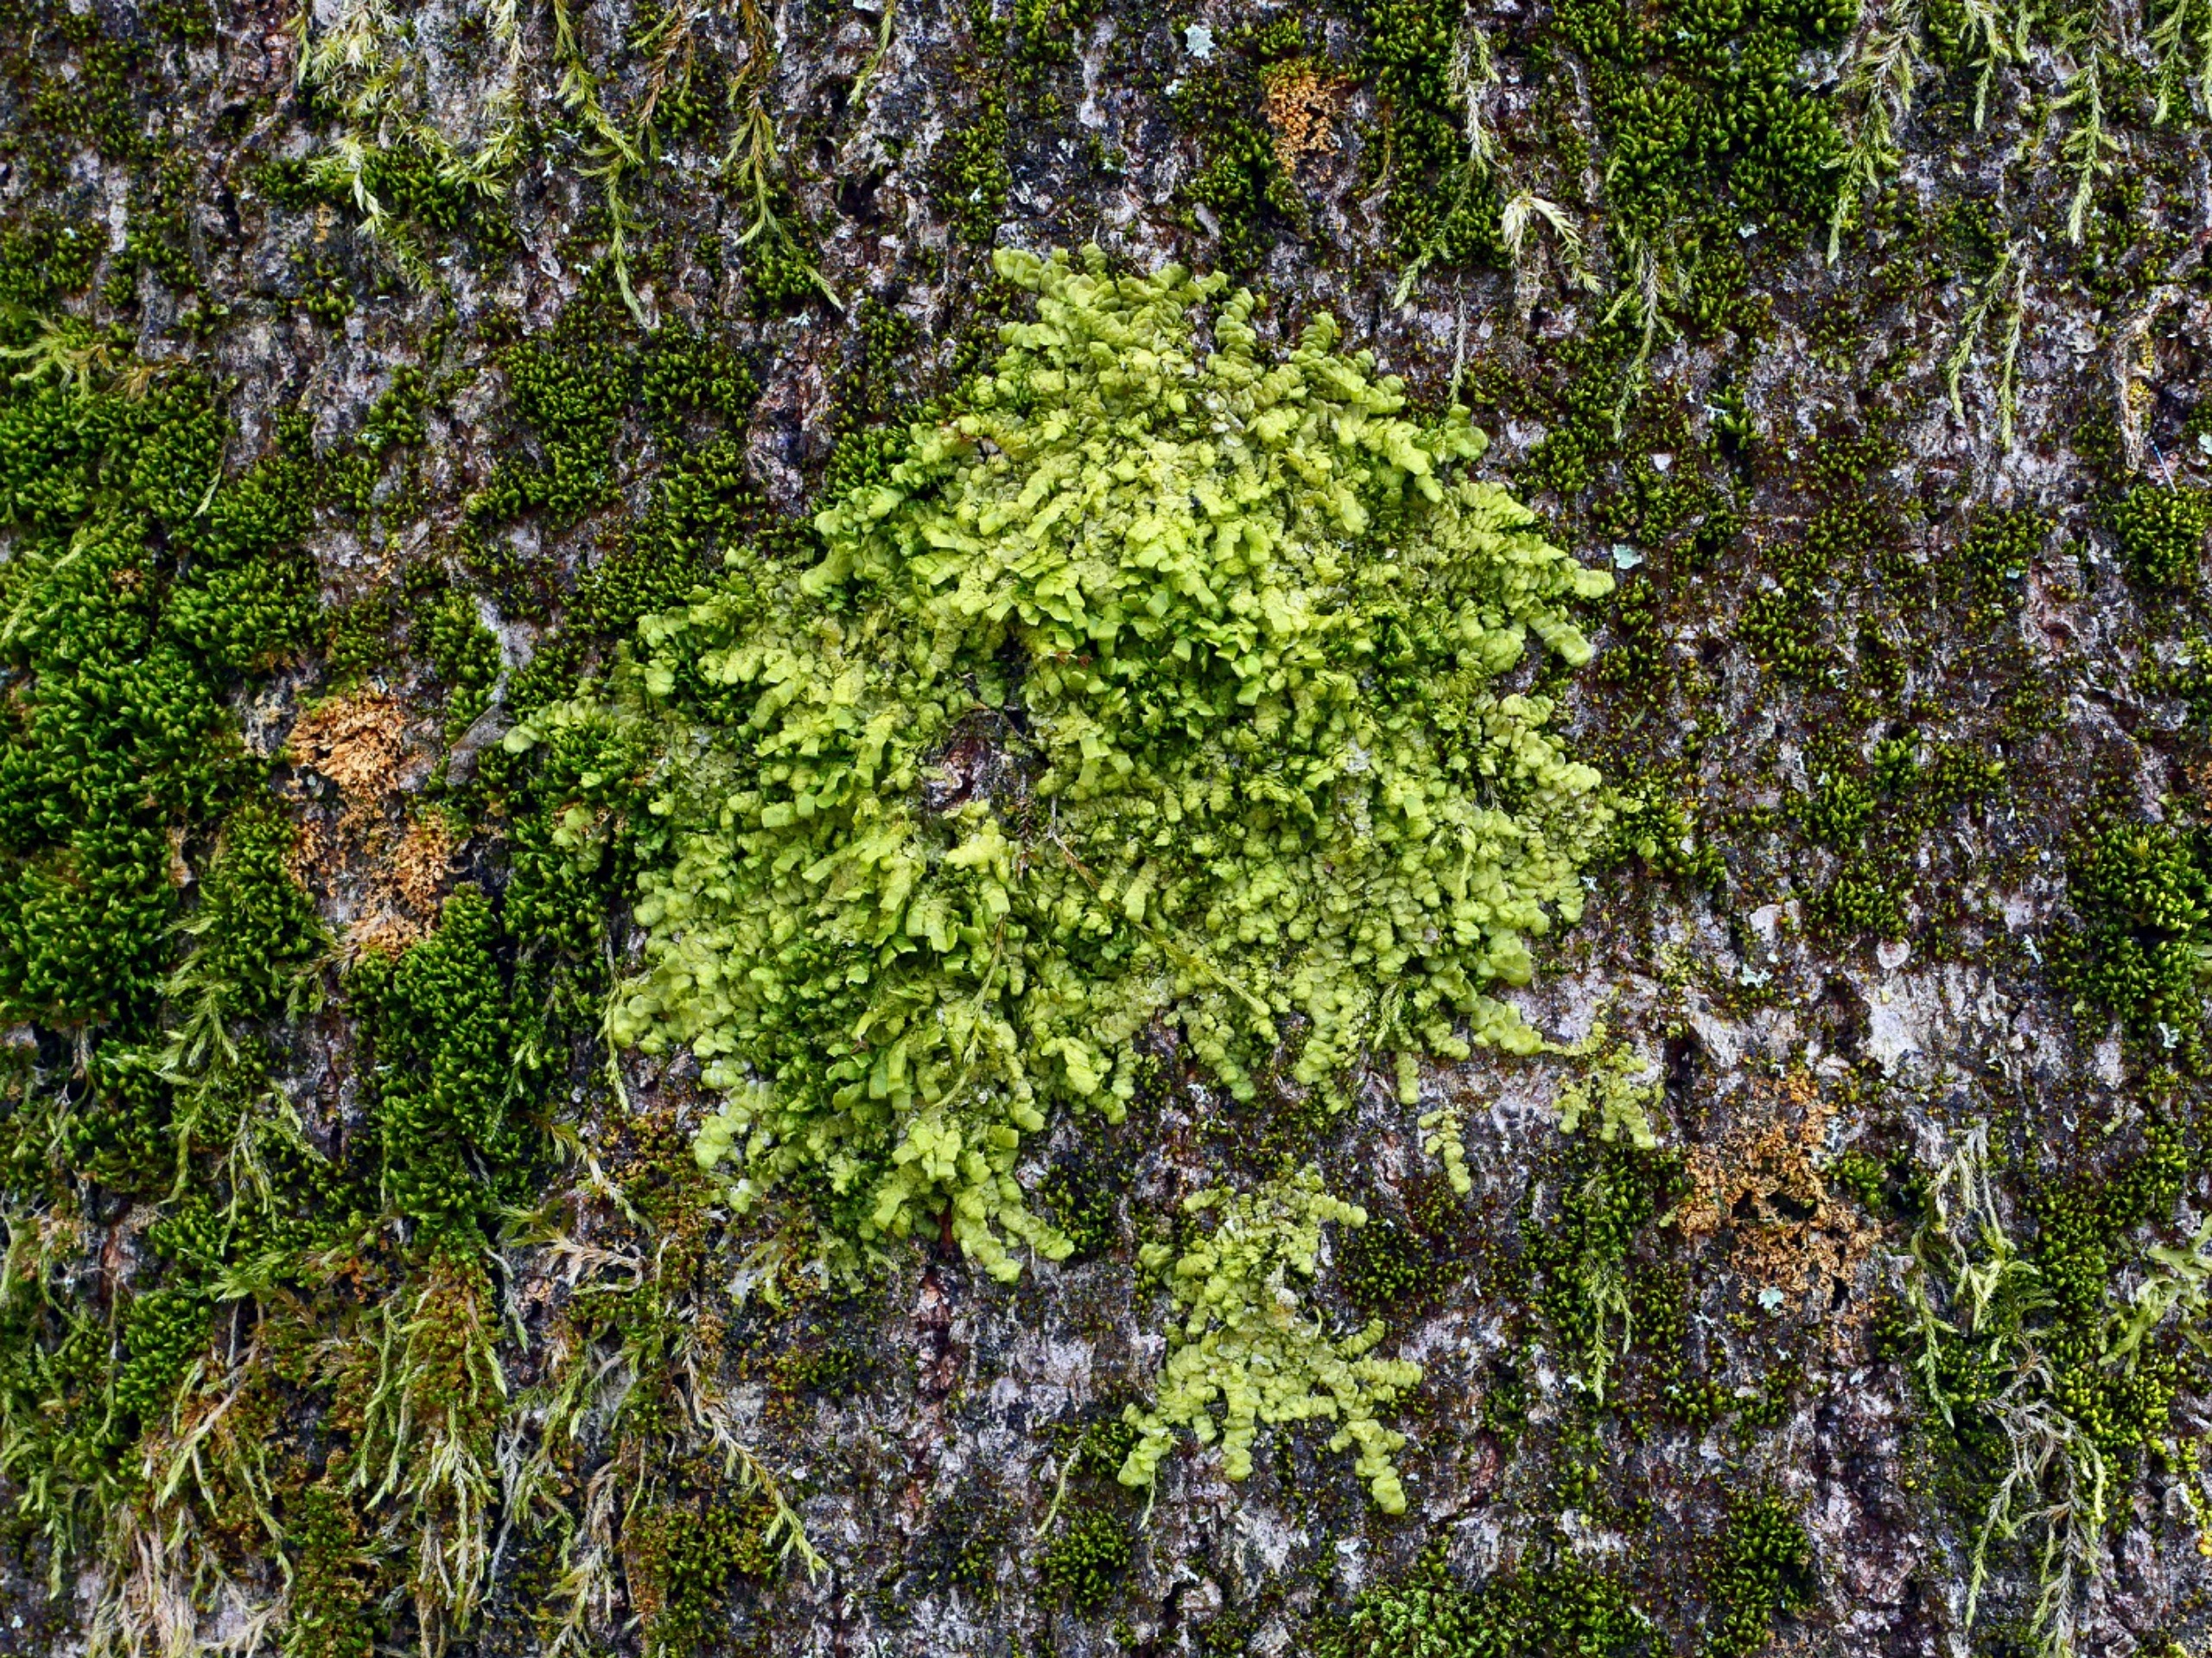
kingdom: Plantae
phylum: Marchantiophyta
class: Jungermanniopsida
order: Porellales
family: Radulaceae
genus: Radula
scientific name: Radula complanata
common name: Almindelig spartelmos
